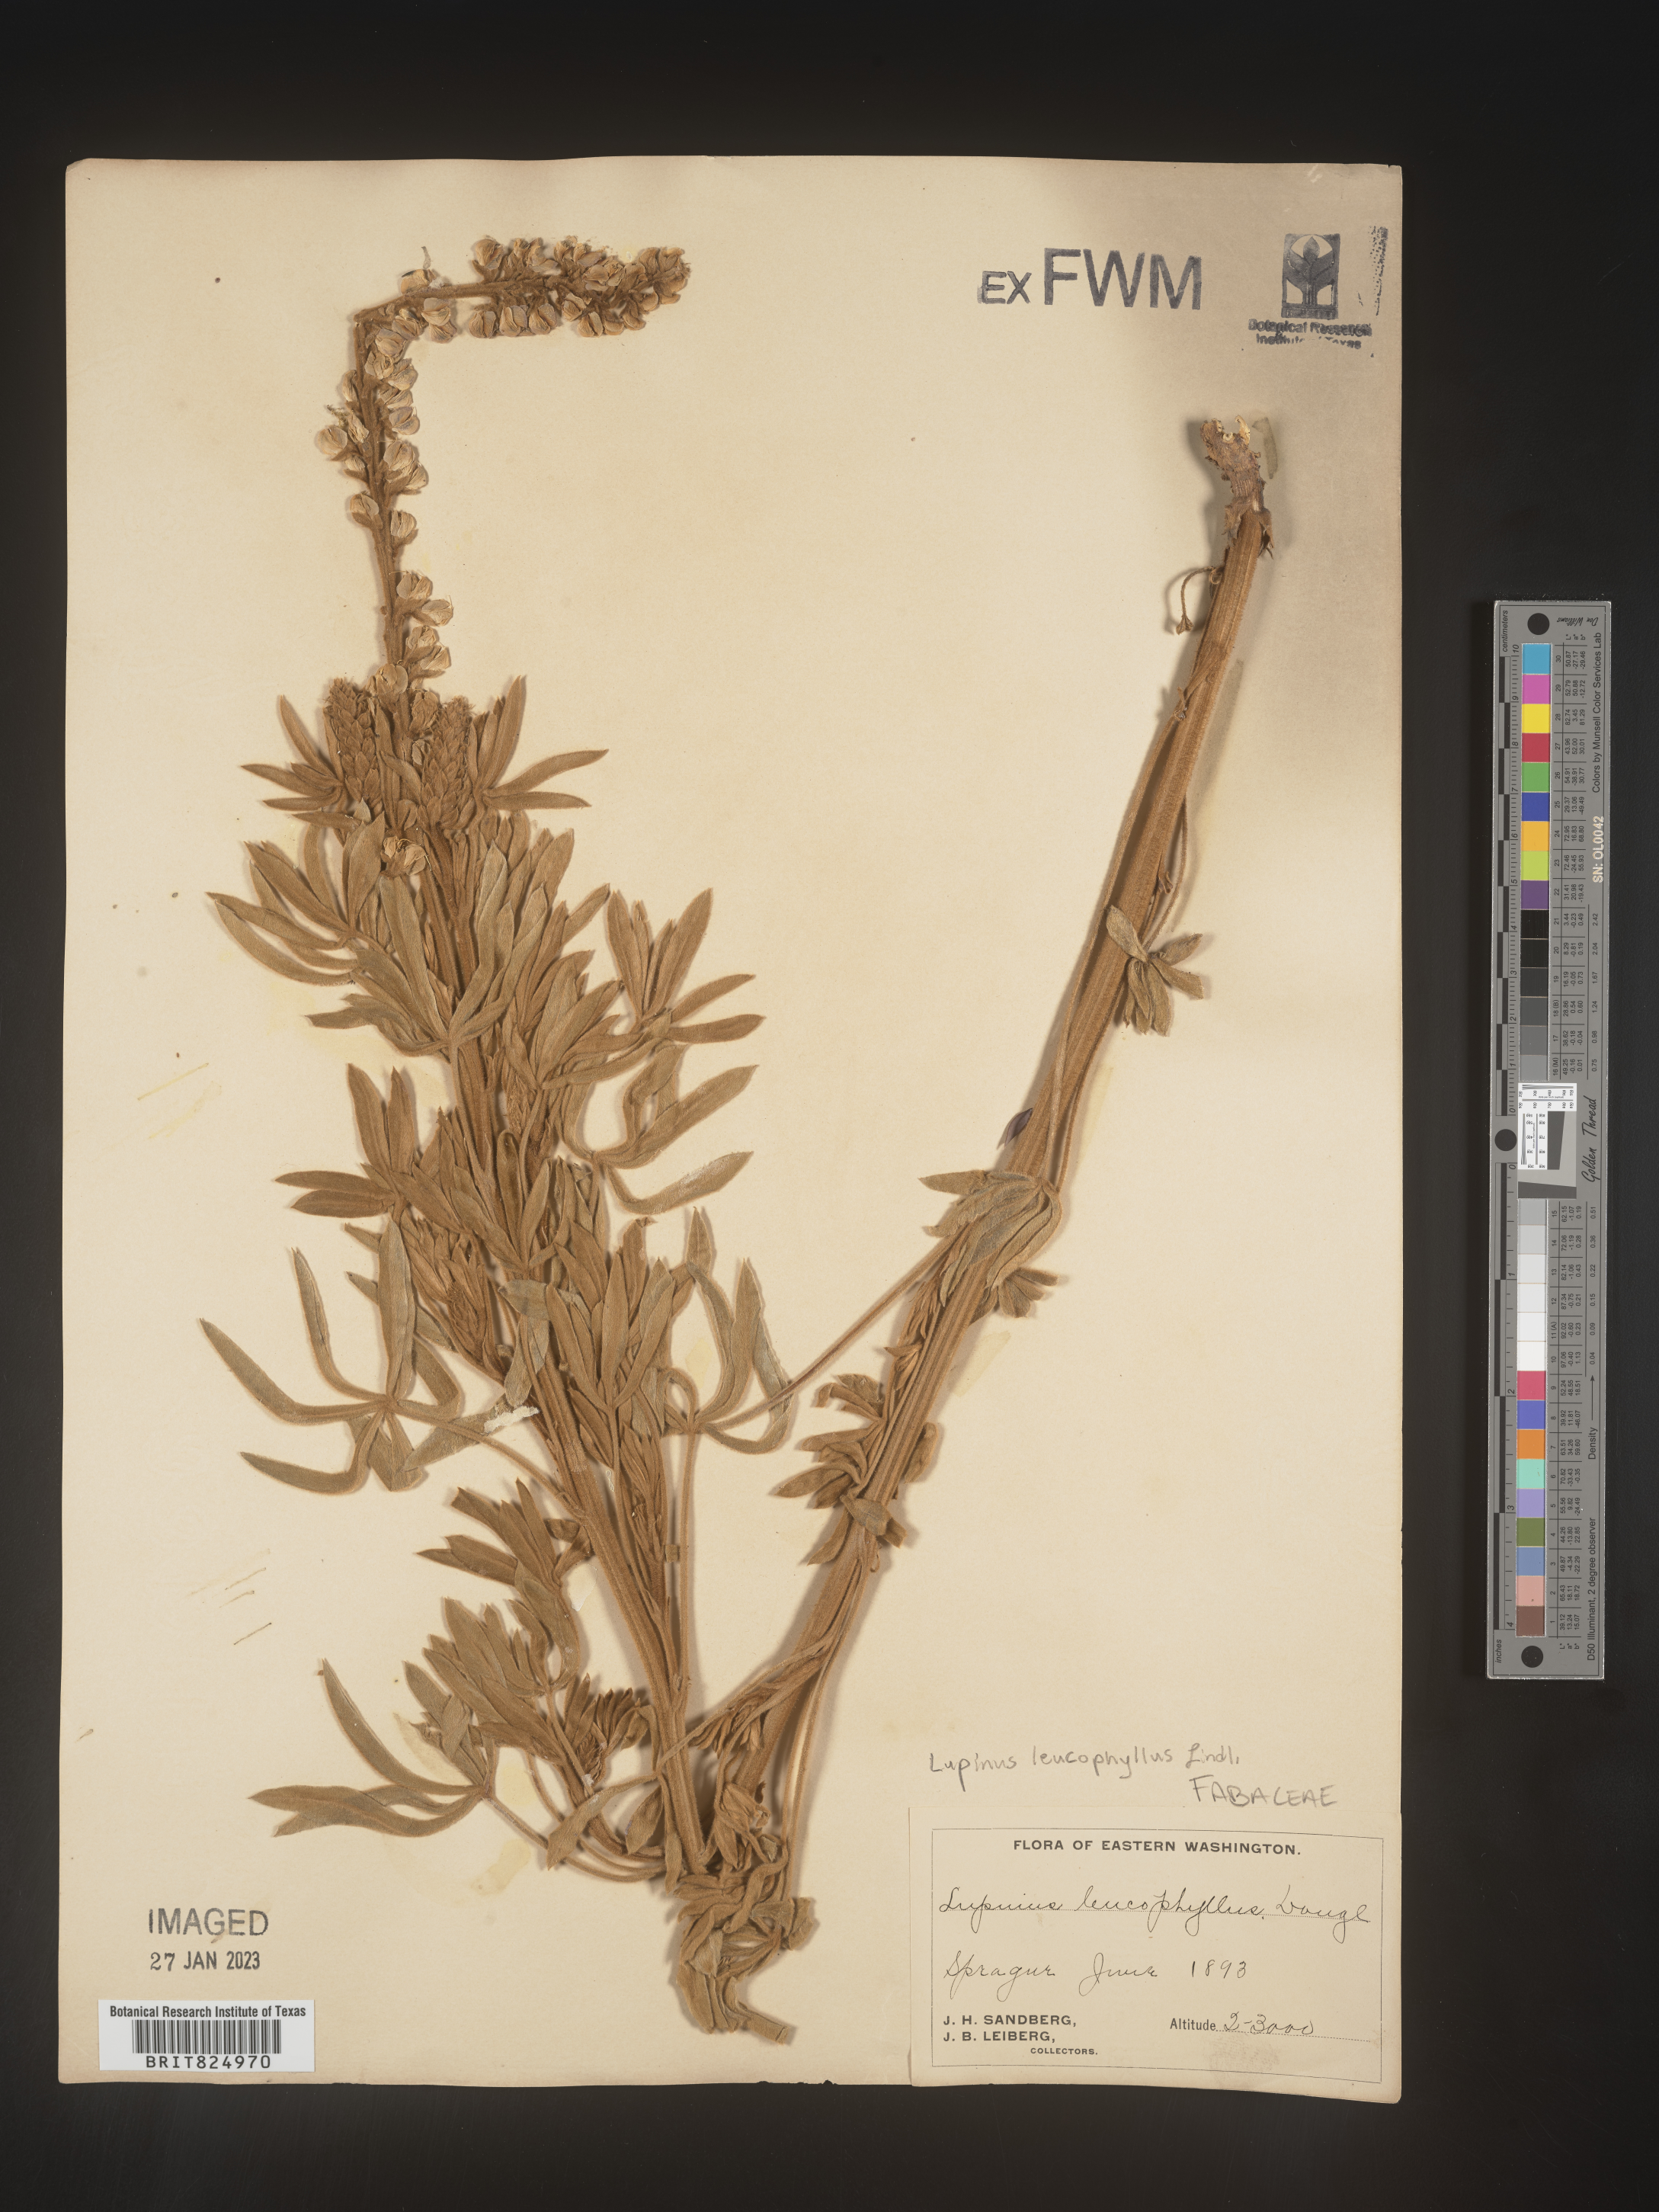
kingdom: Plantae
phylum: Tracheophyta
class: Magnoliopsida
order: Fabales
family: Fabaceae
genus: Lupinus
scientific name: Lupinus
